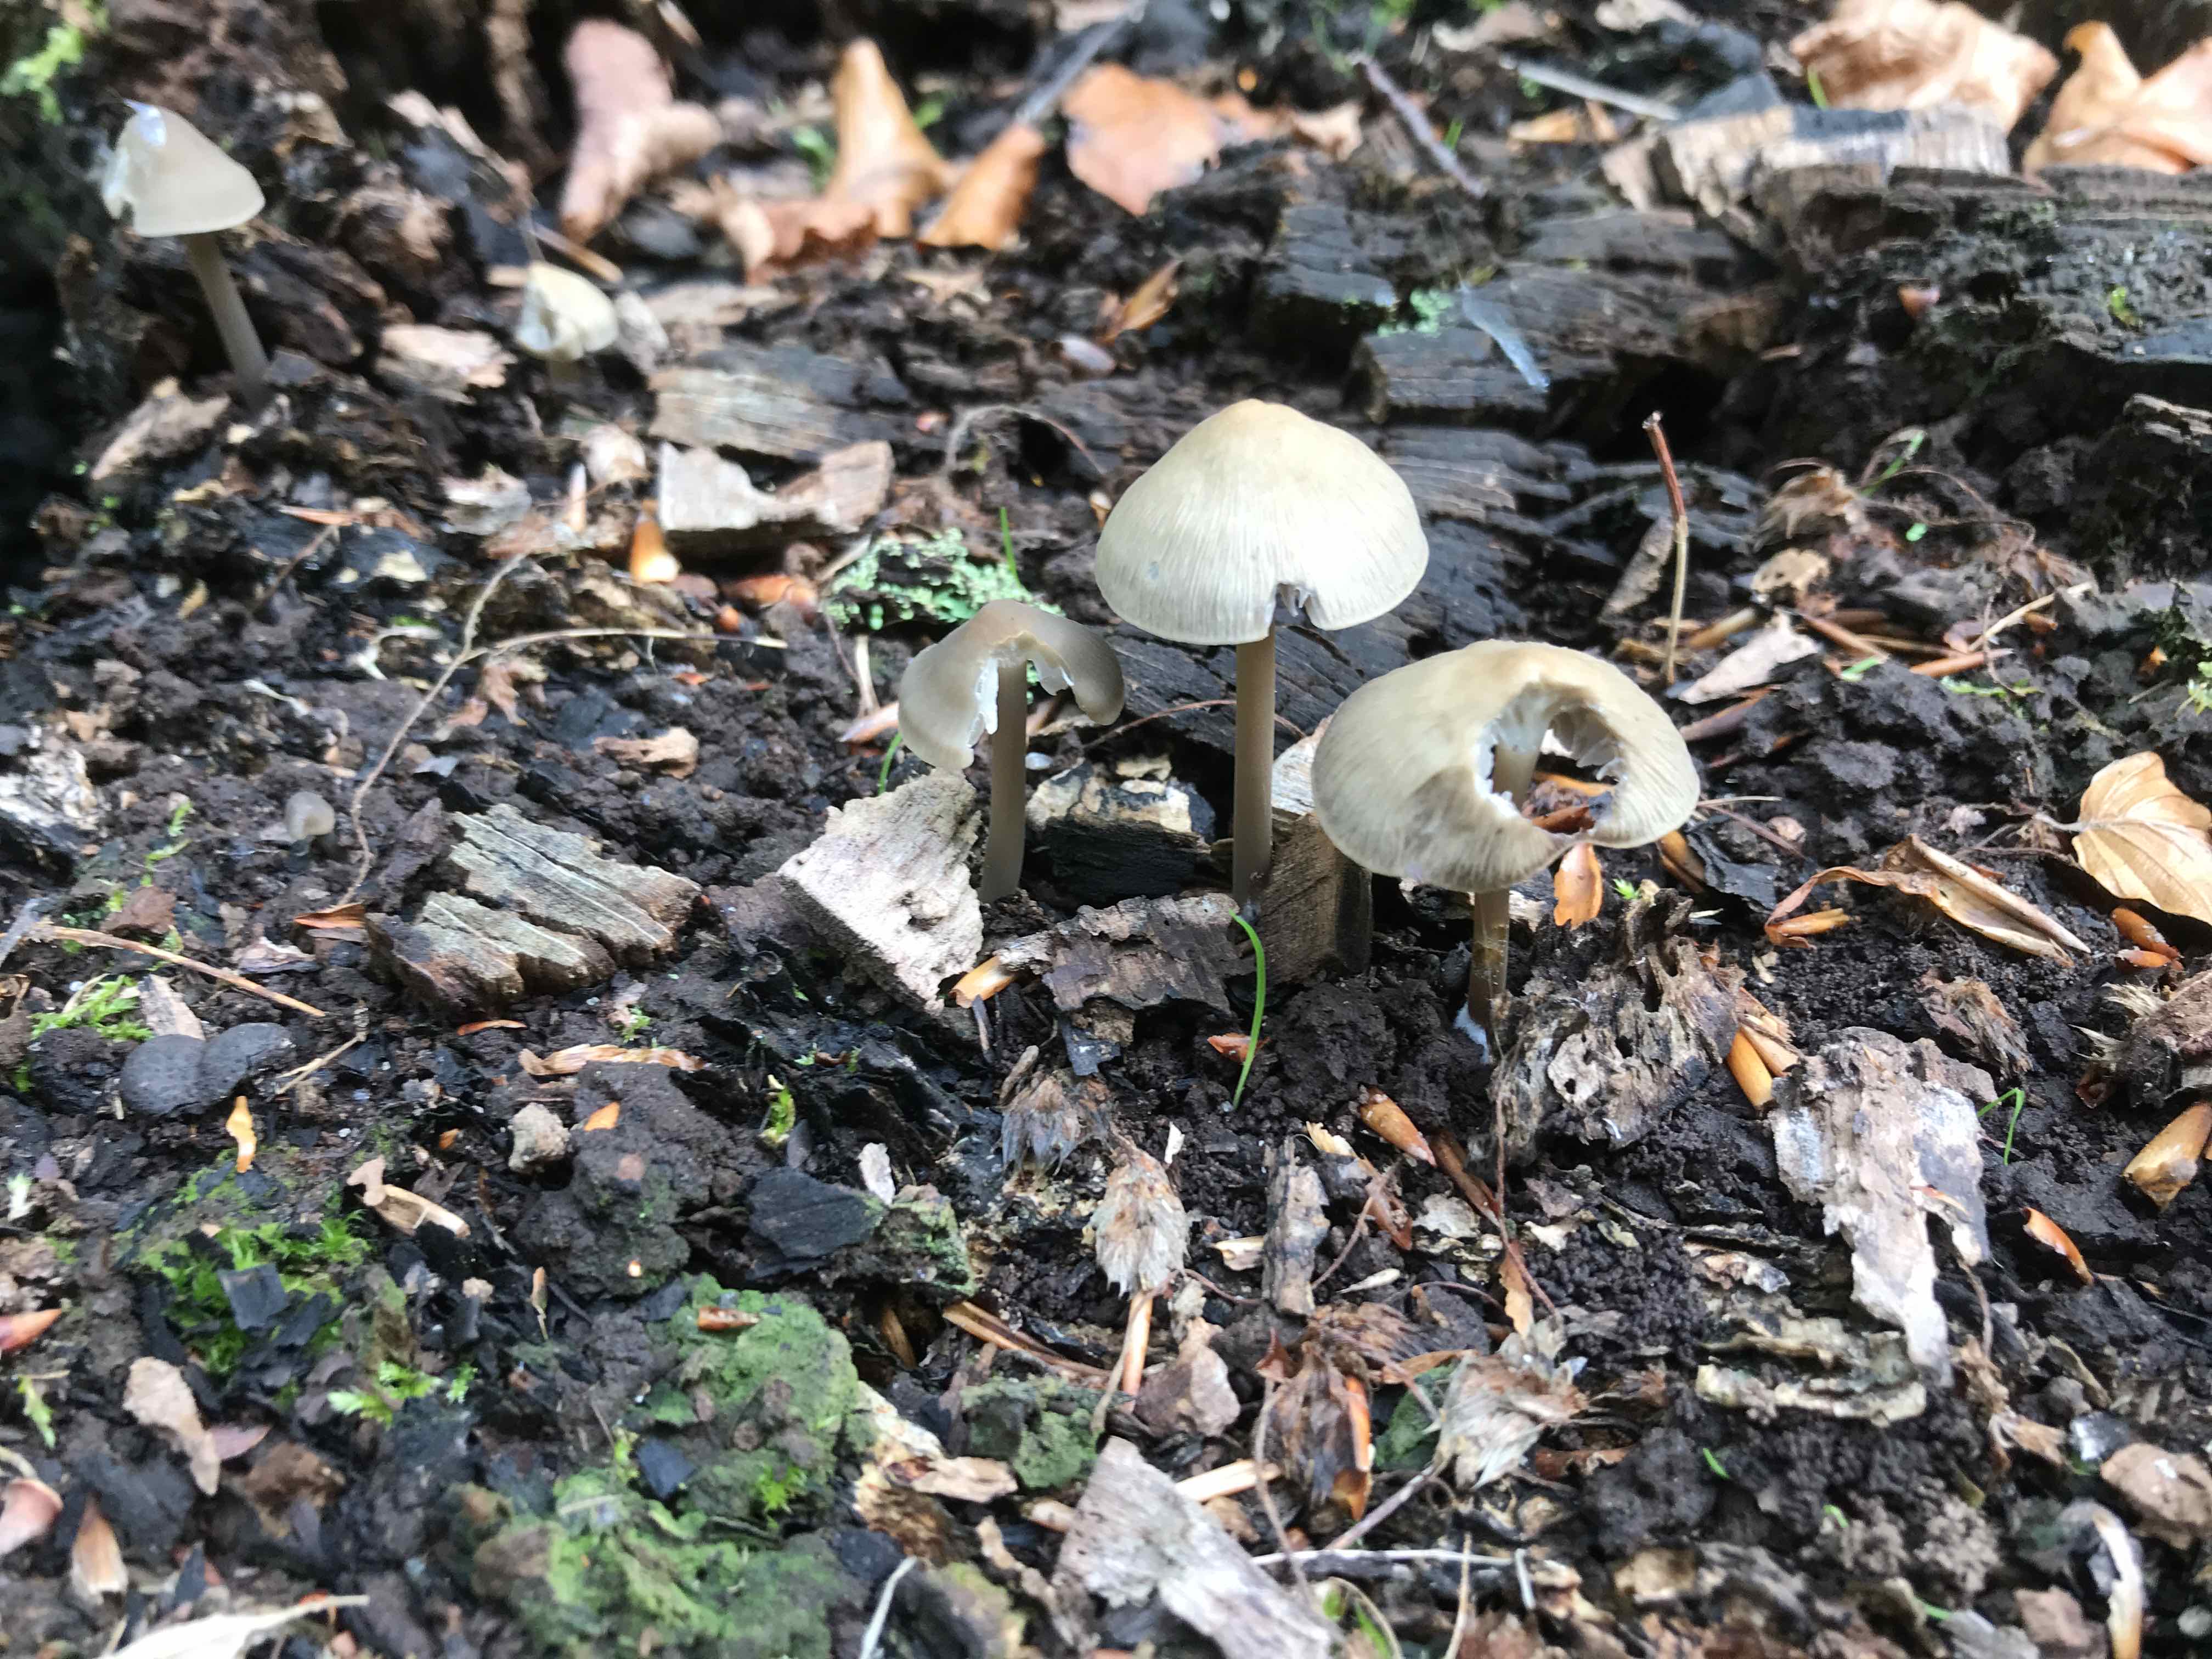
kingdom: Fungi
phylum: Basidiomycota
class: Agaricomycetes
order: Agaricales
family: Mycenaceae
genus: Mycena
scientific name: Mycena galericulata
